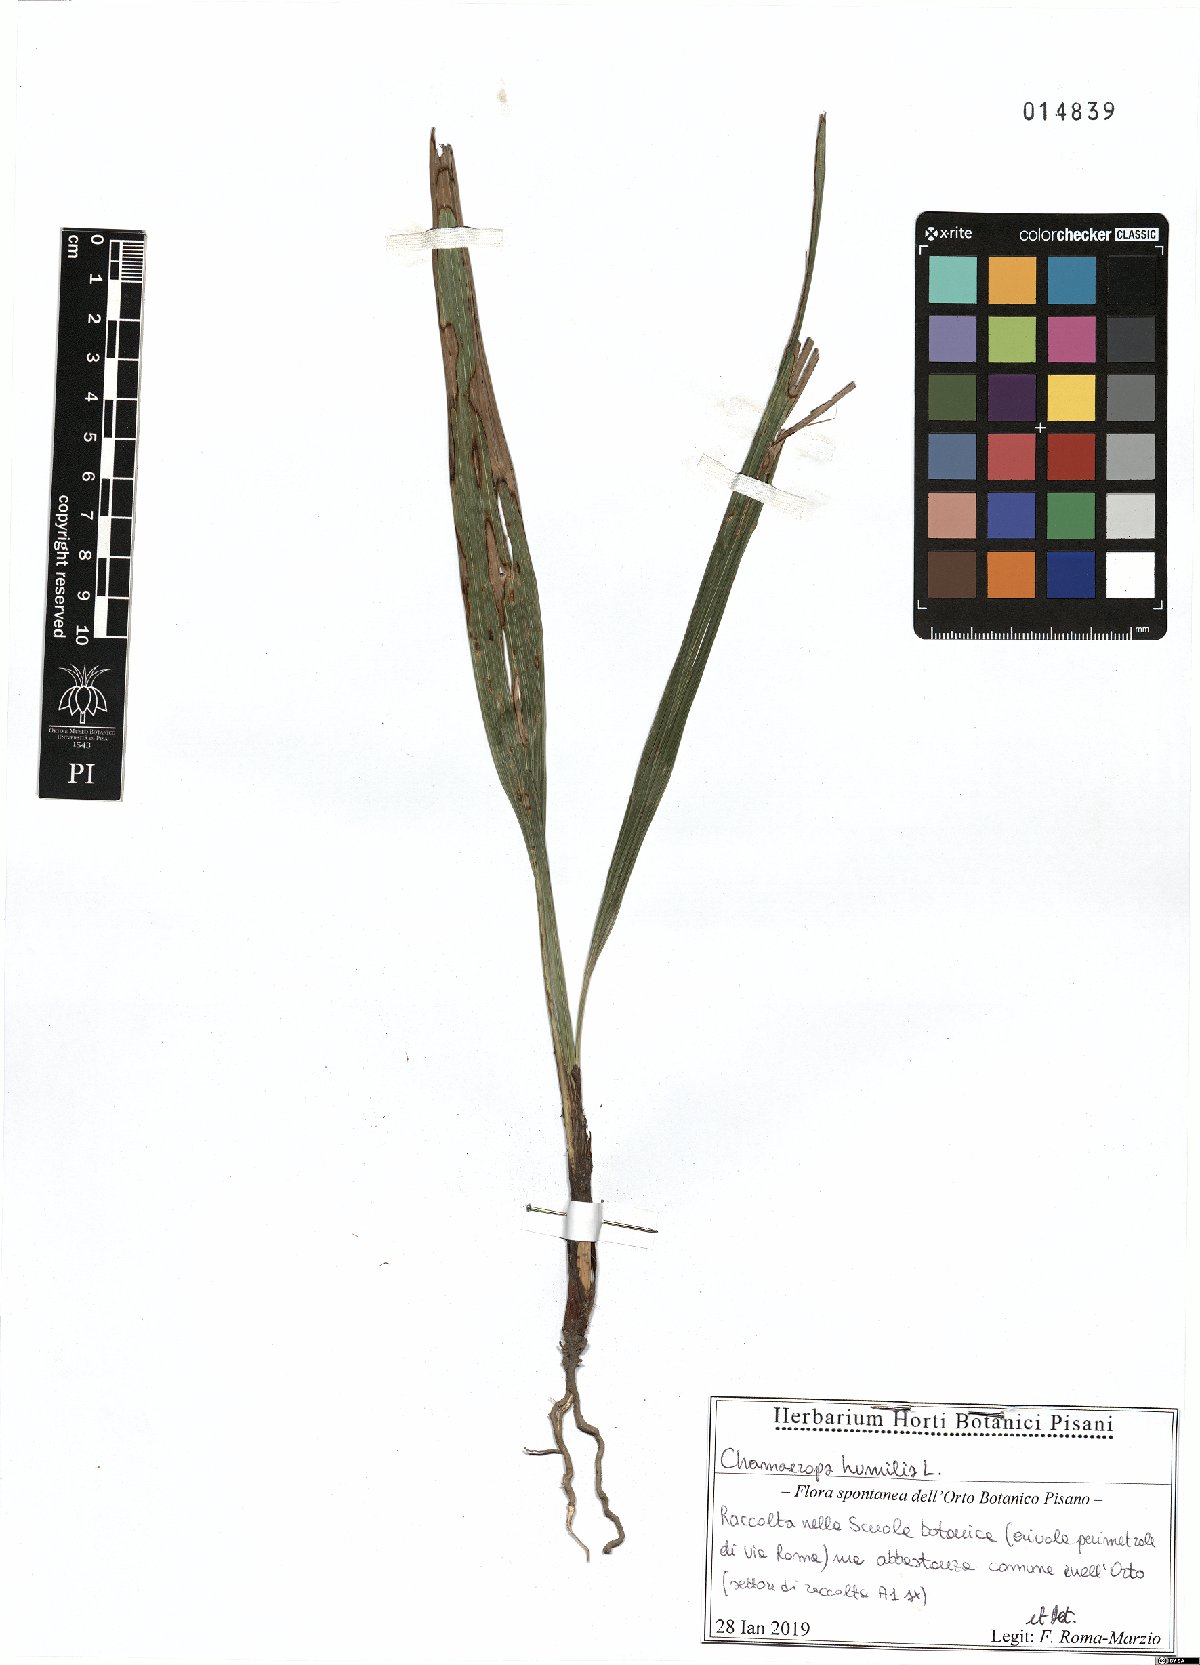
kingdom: Plantae
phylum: Tracheophyta
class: Liliopsida
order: Arecales
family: Arecaceae
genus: Chamaerops
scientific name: Chamaerops humilis
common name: Dwarf fan palm
